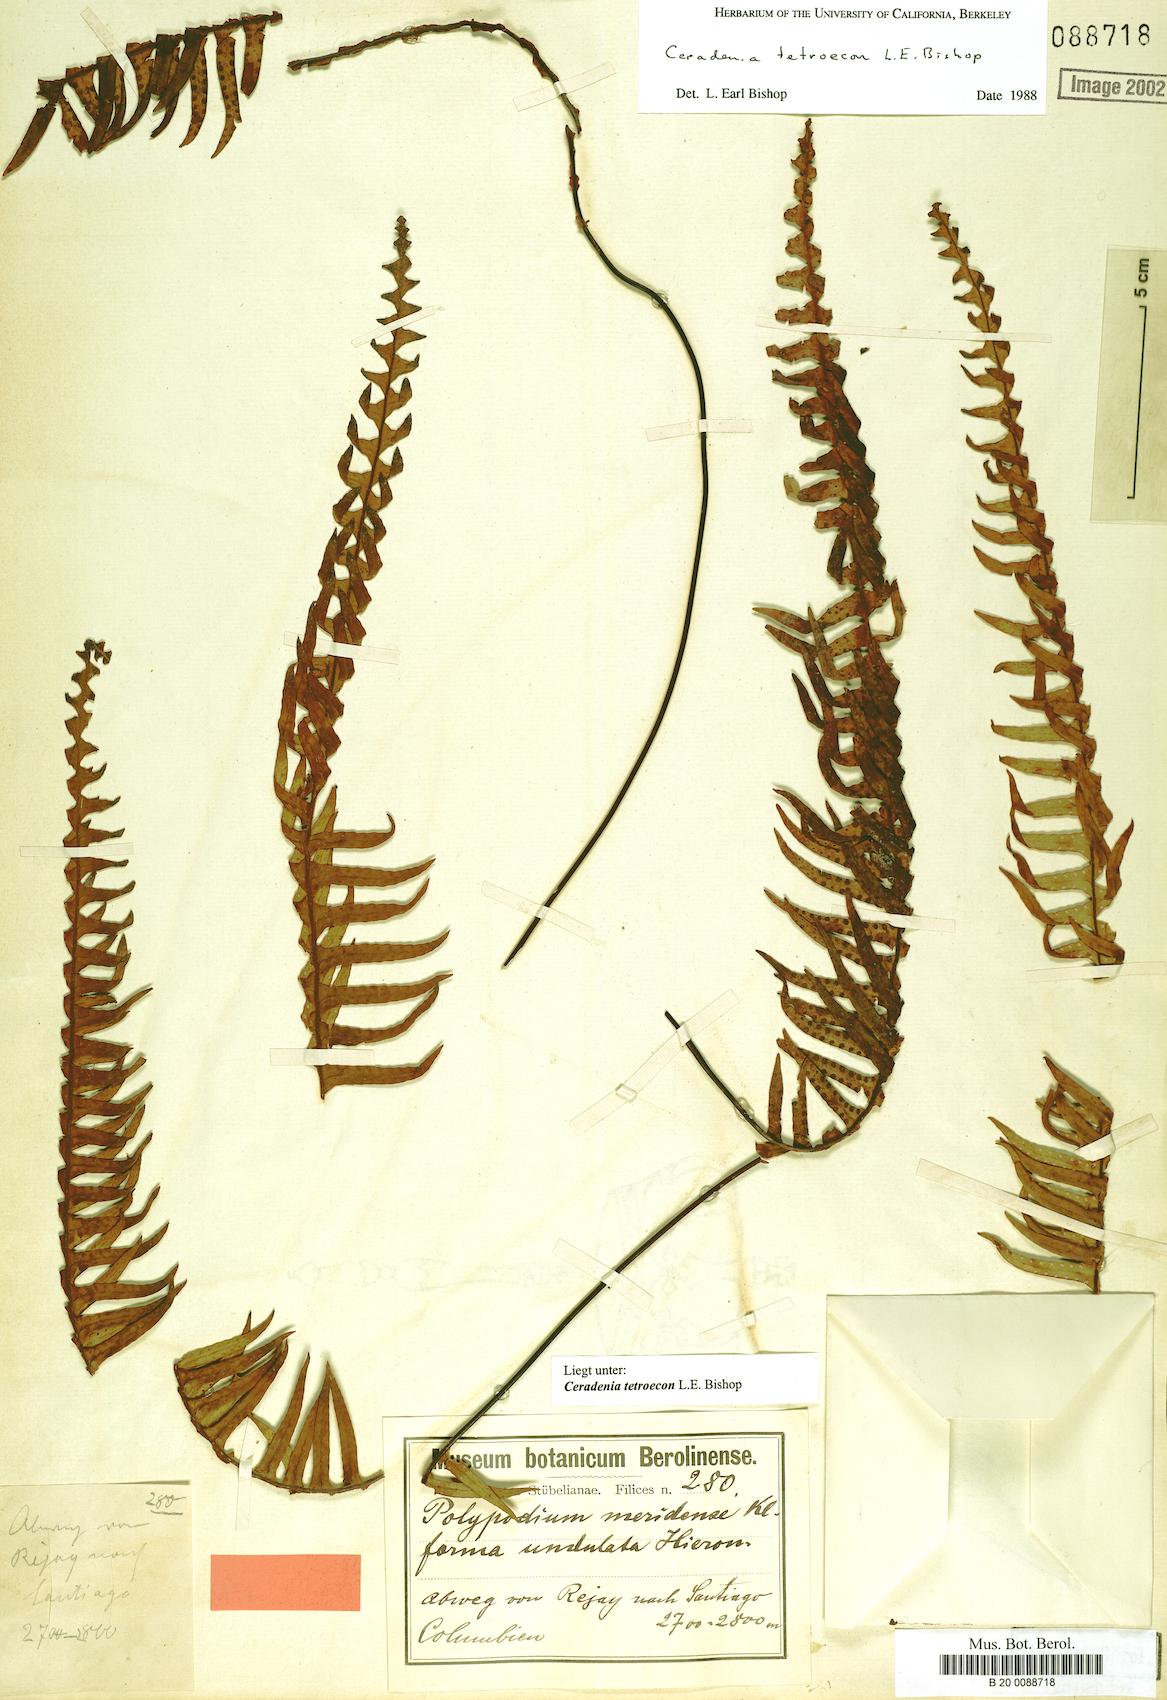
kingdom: Plantae
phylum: Tracheophyta
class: Polypodiopsida
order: Polypodiales
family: Polypodiaceae
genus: Ceradenia
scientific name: Ceradenia
